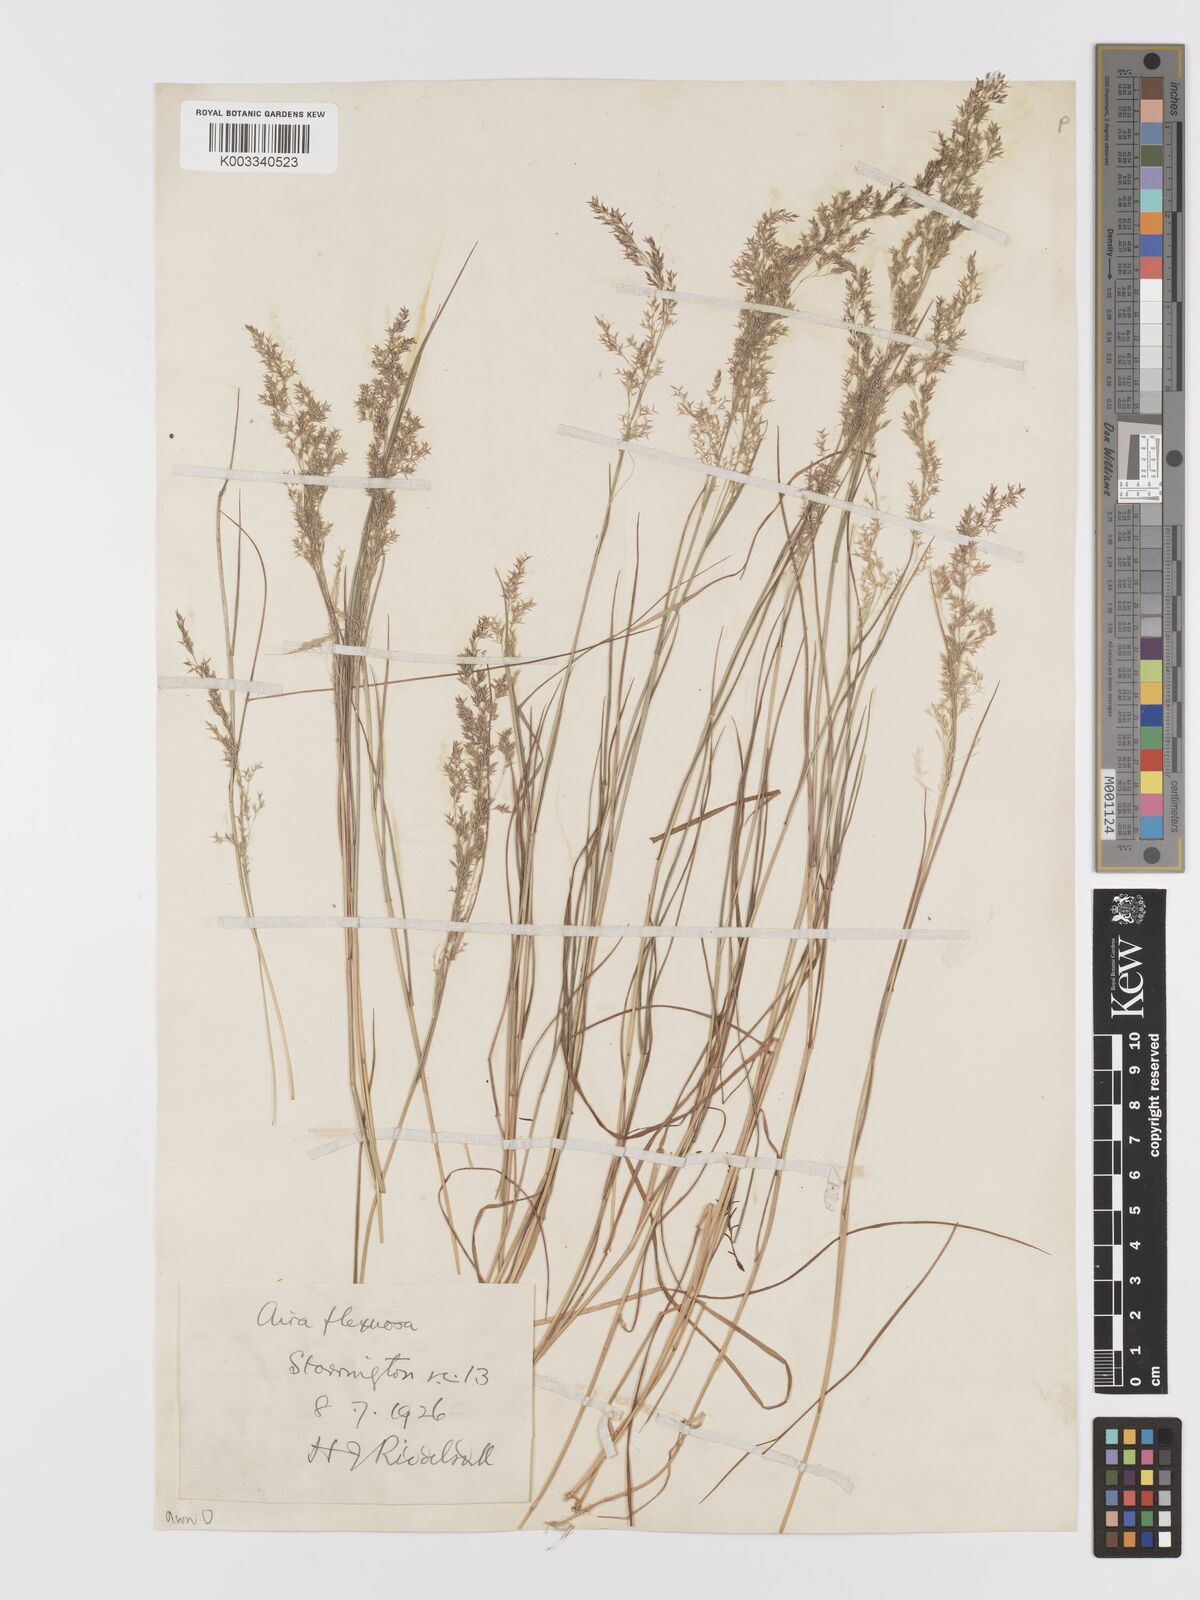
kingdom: Plantae
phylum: Tracheophyta
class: Liliopsida
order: Poales
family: Poaceae
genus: Agrostis
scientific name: Agrostis capillaris
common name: Colonial bentgrass
